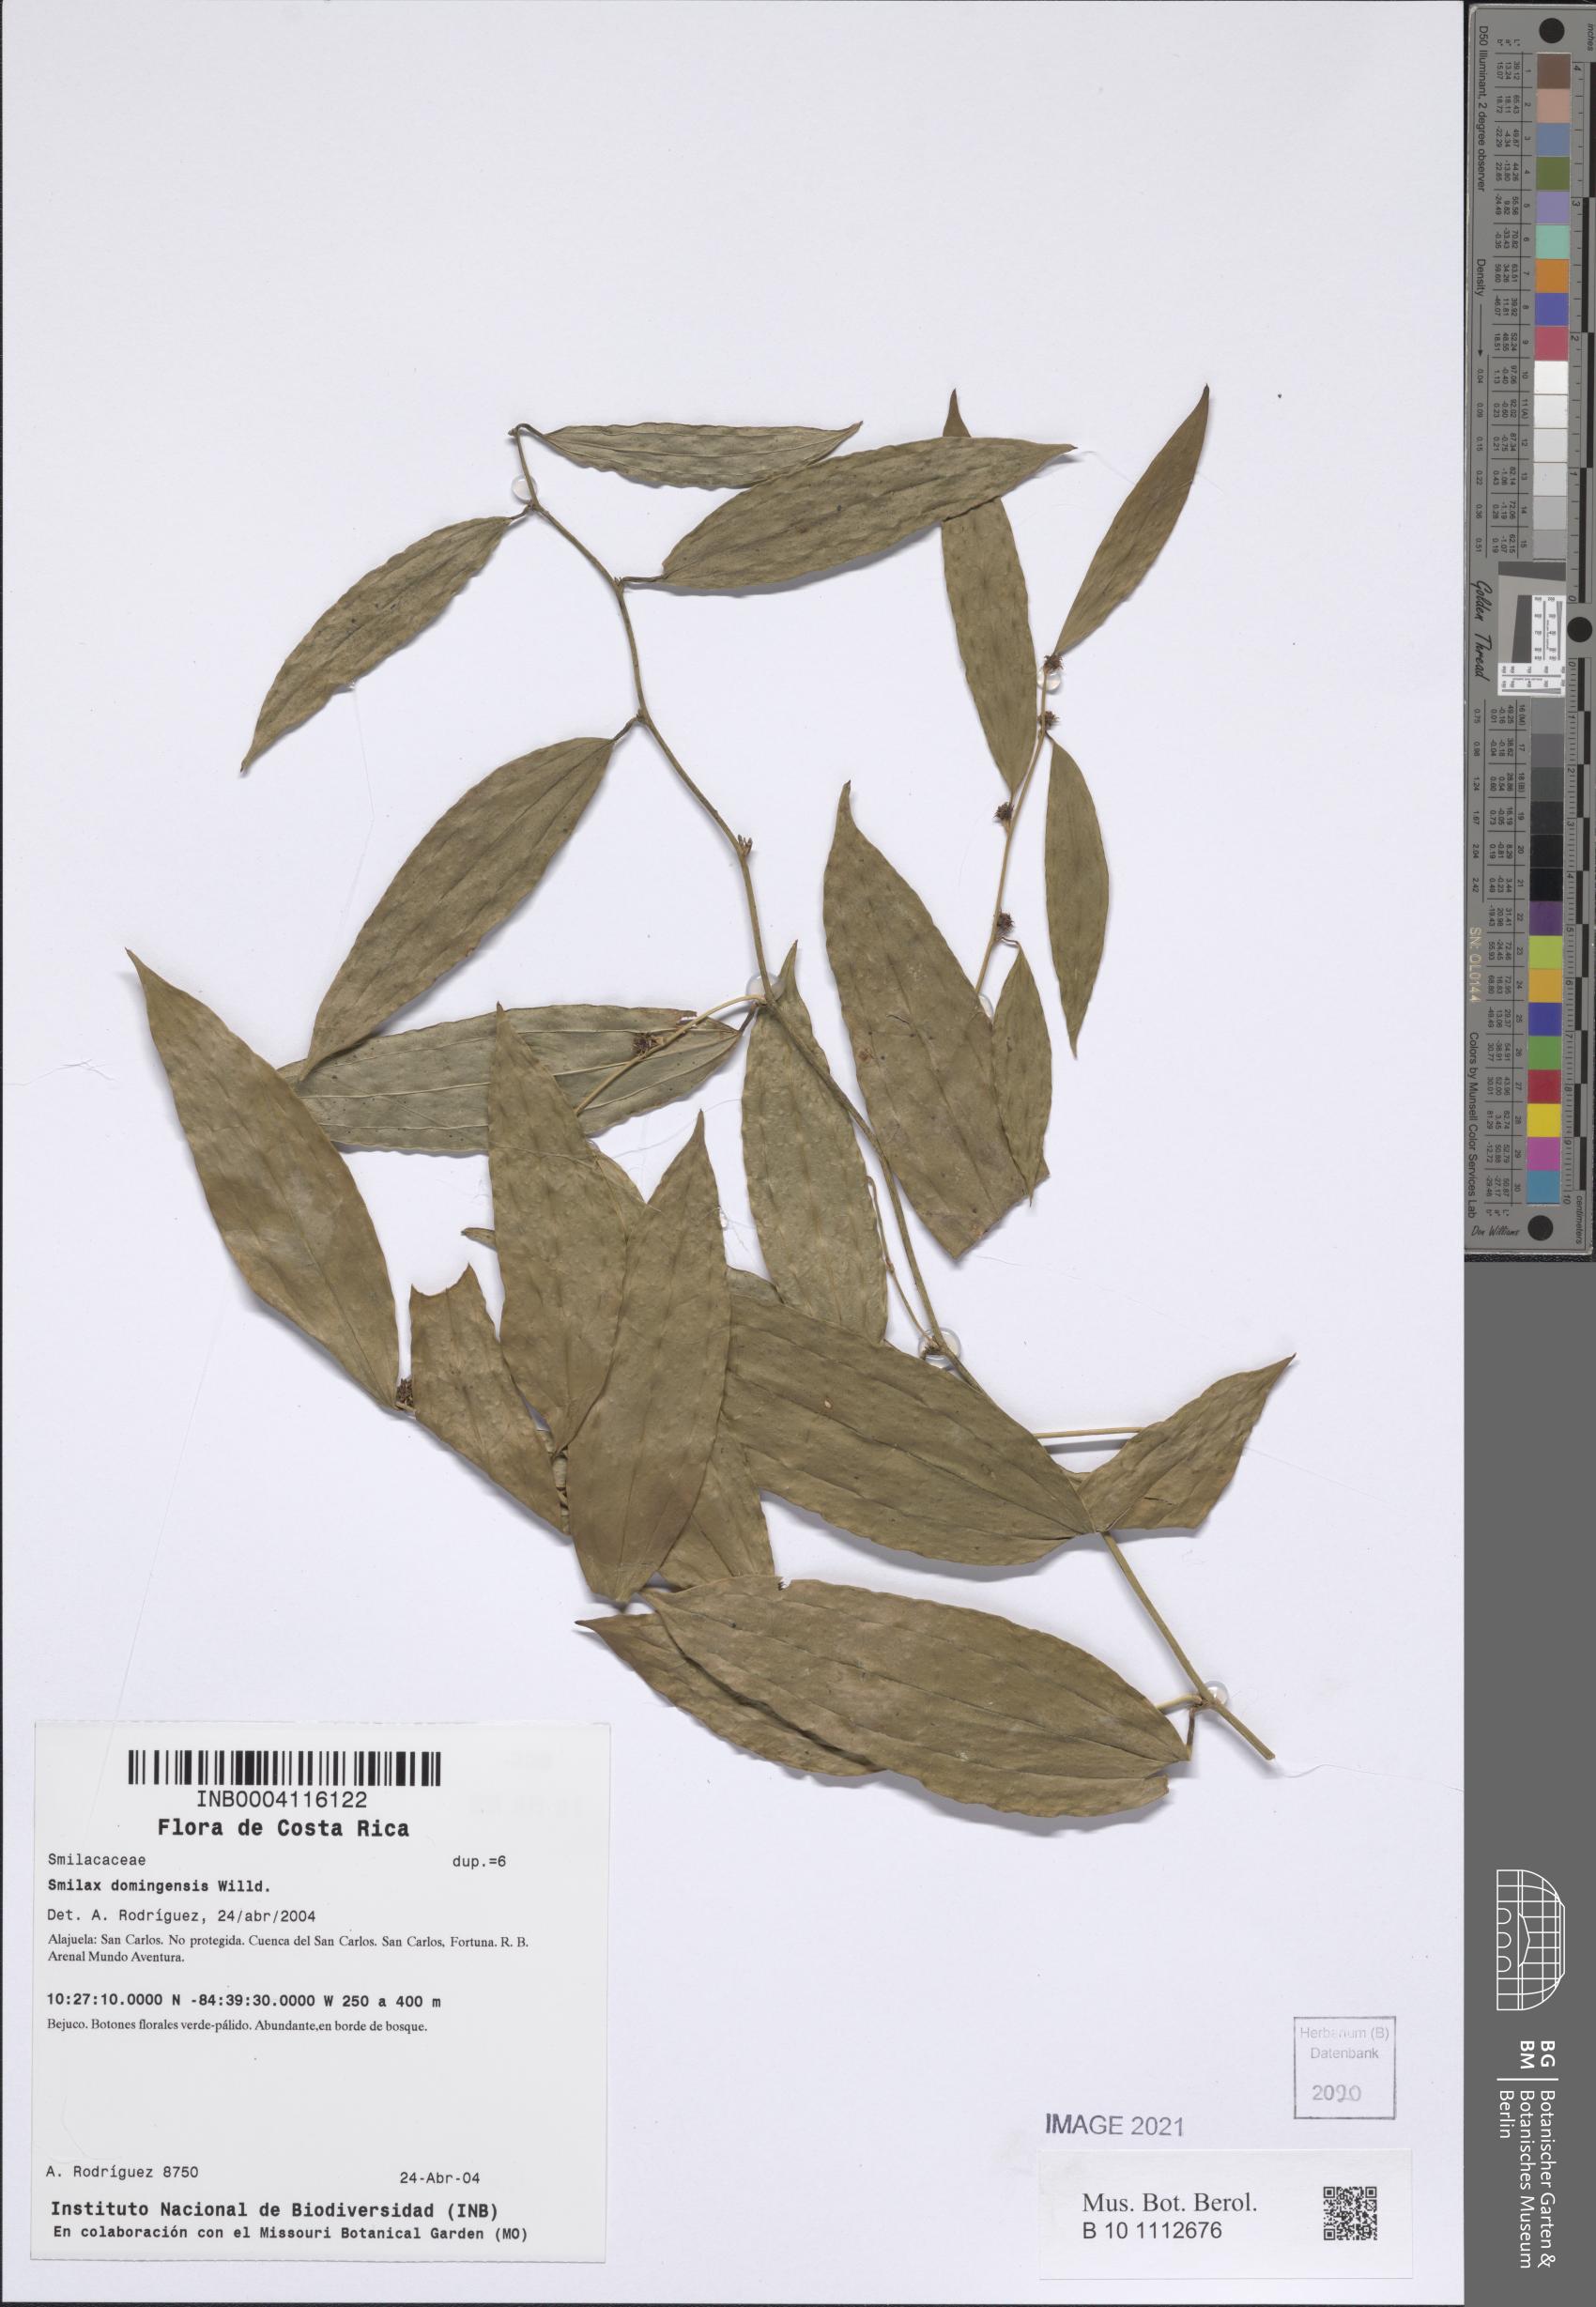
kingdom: Plantae
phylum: Tracheophyta
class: Liliopsida
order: Liliales
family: Smilacaceae
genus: Smilax
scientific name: Smilax domingensis
